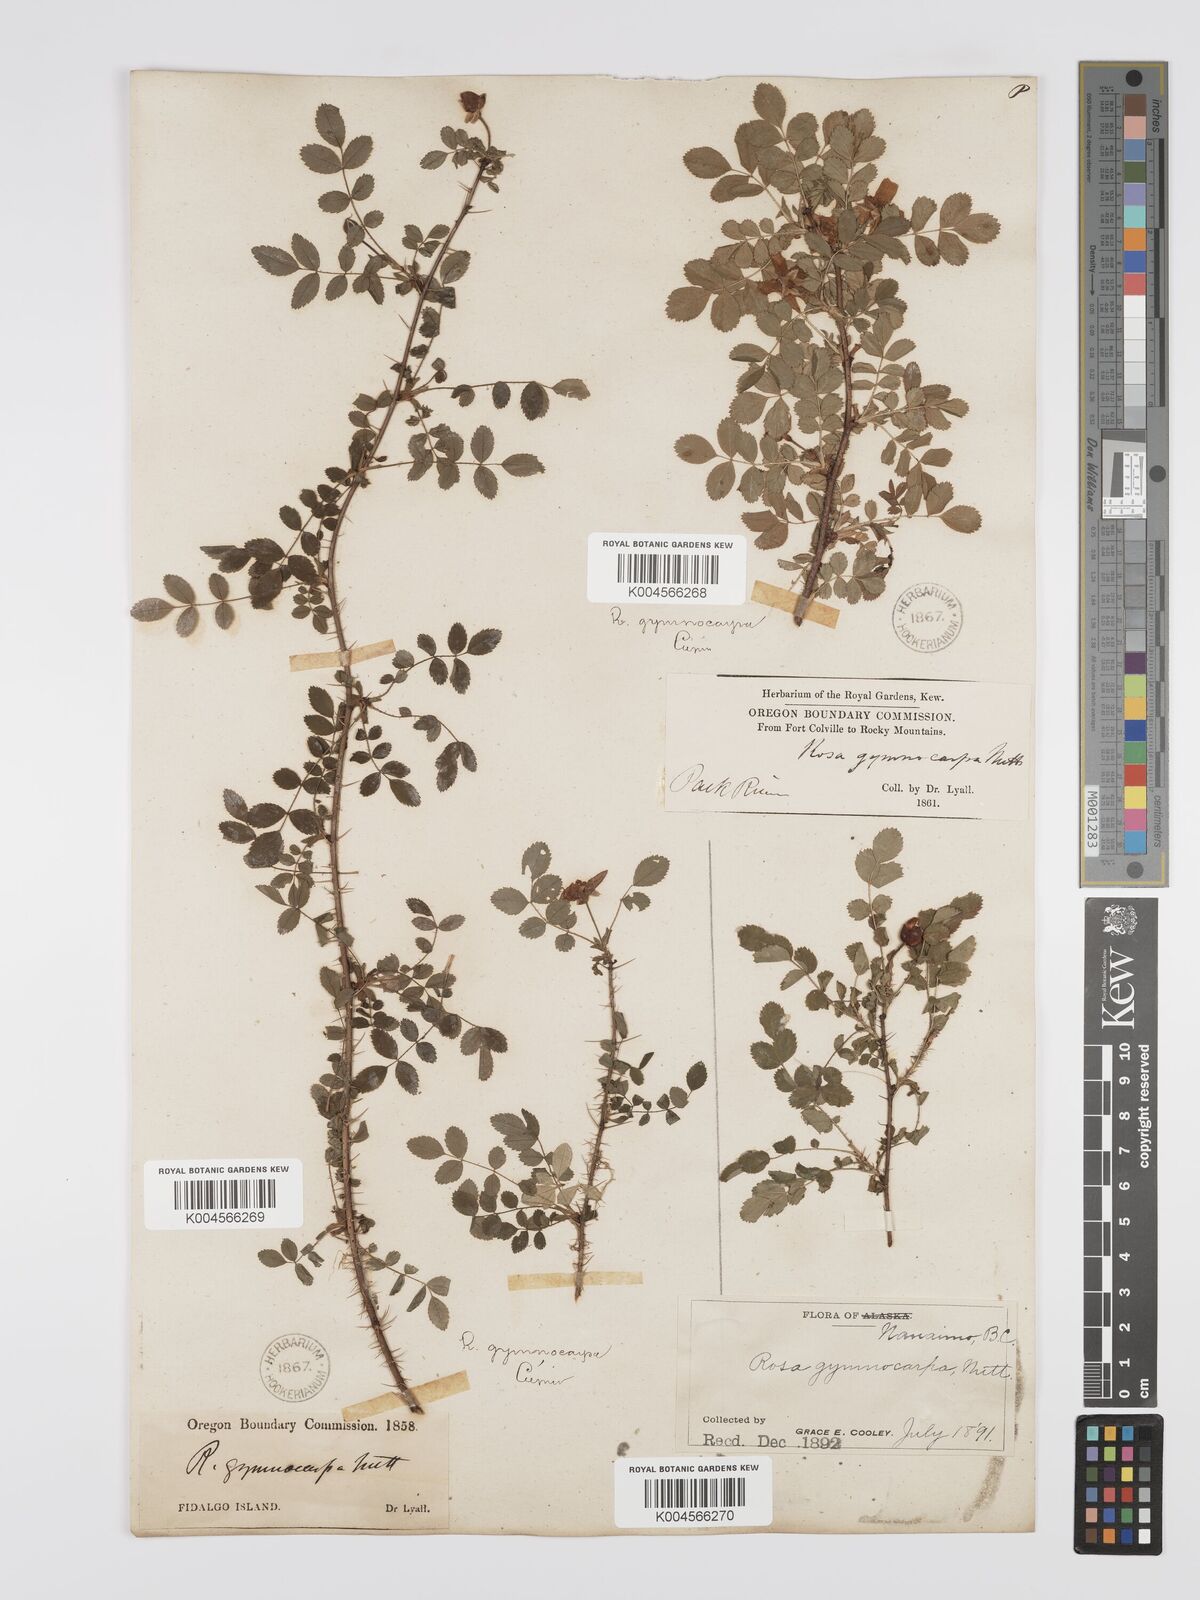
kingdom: Plantae
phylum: Tracheophyta
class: Magnoliopsida
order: Rosales
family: Rosaceae
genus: Rosa
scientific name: Rosa gymnocarpa
